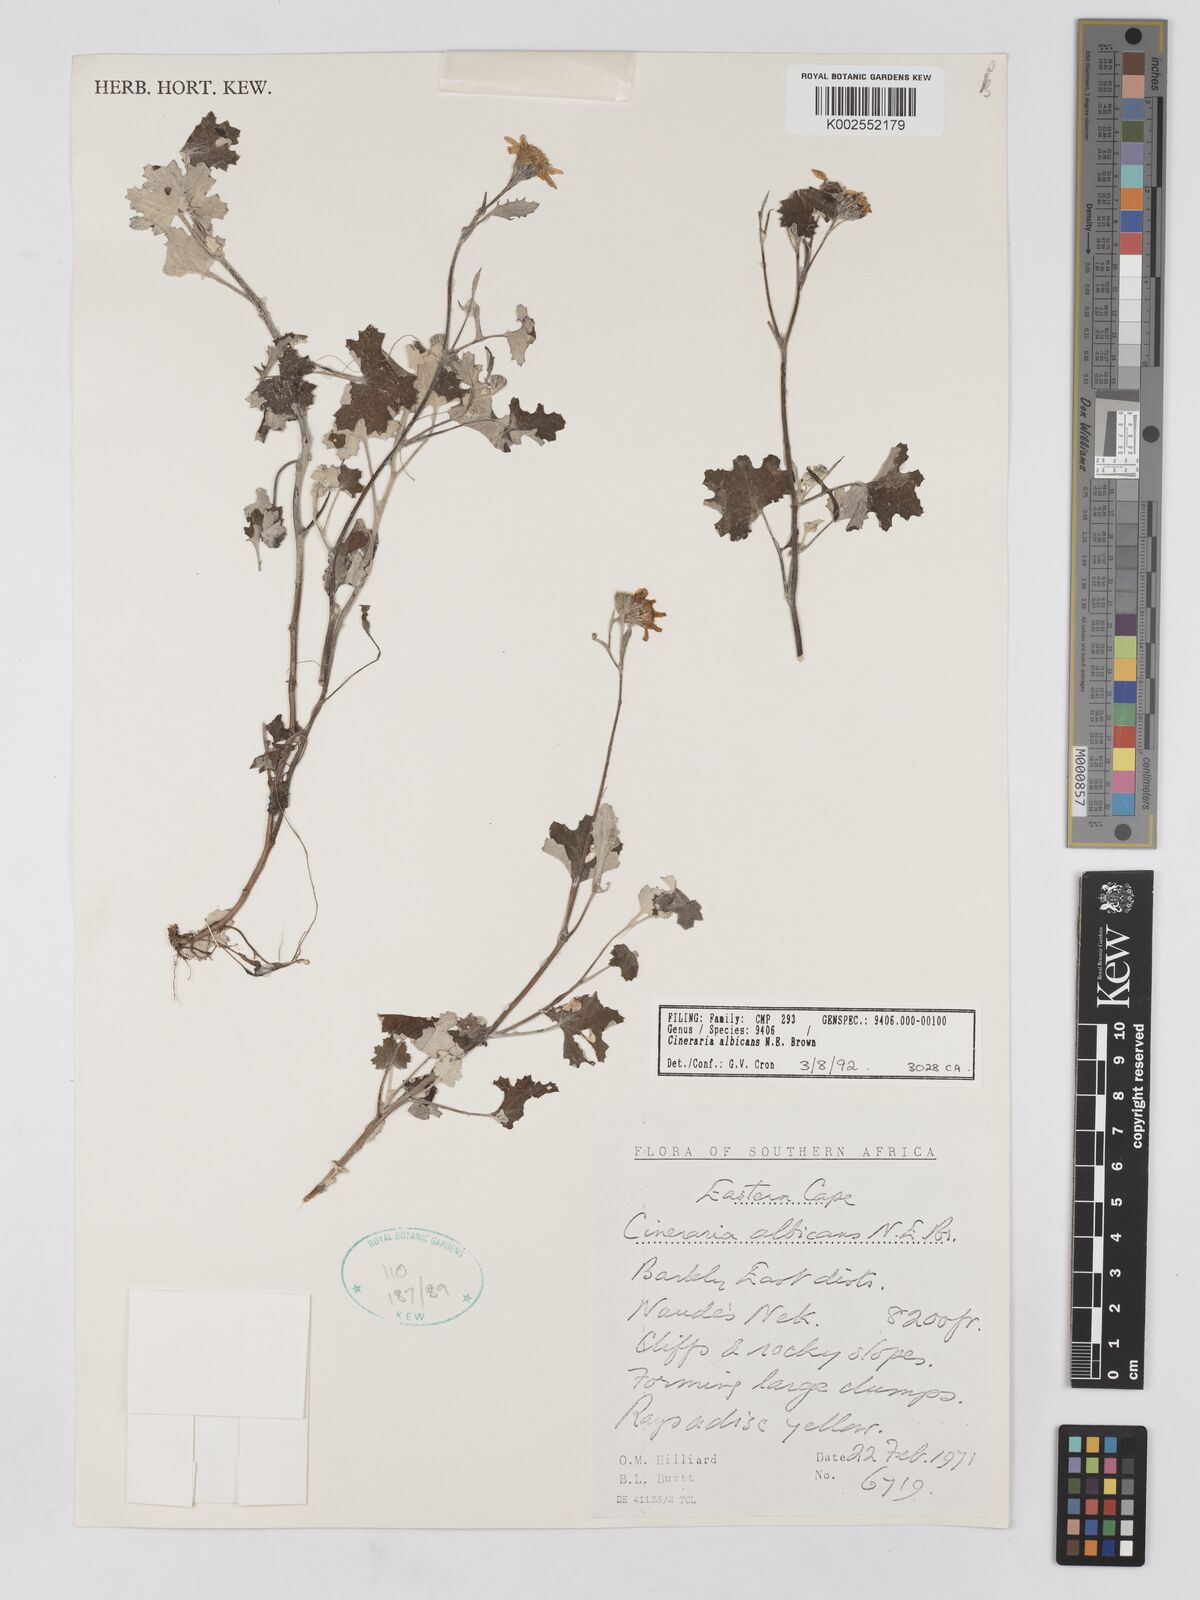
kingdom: Plantae
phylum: Tracheophyta
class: Magnoliopsida
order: Asterales
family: Asteraceae
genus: Cineraria
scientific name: Cineraria albicans
